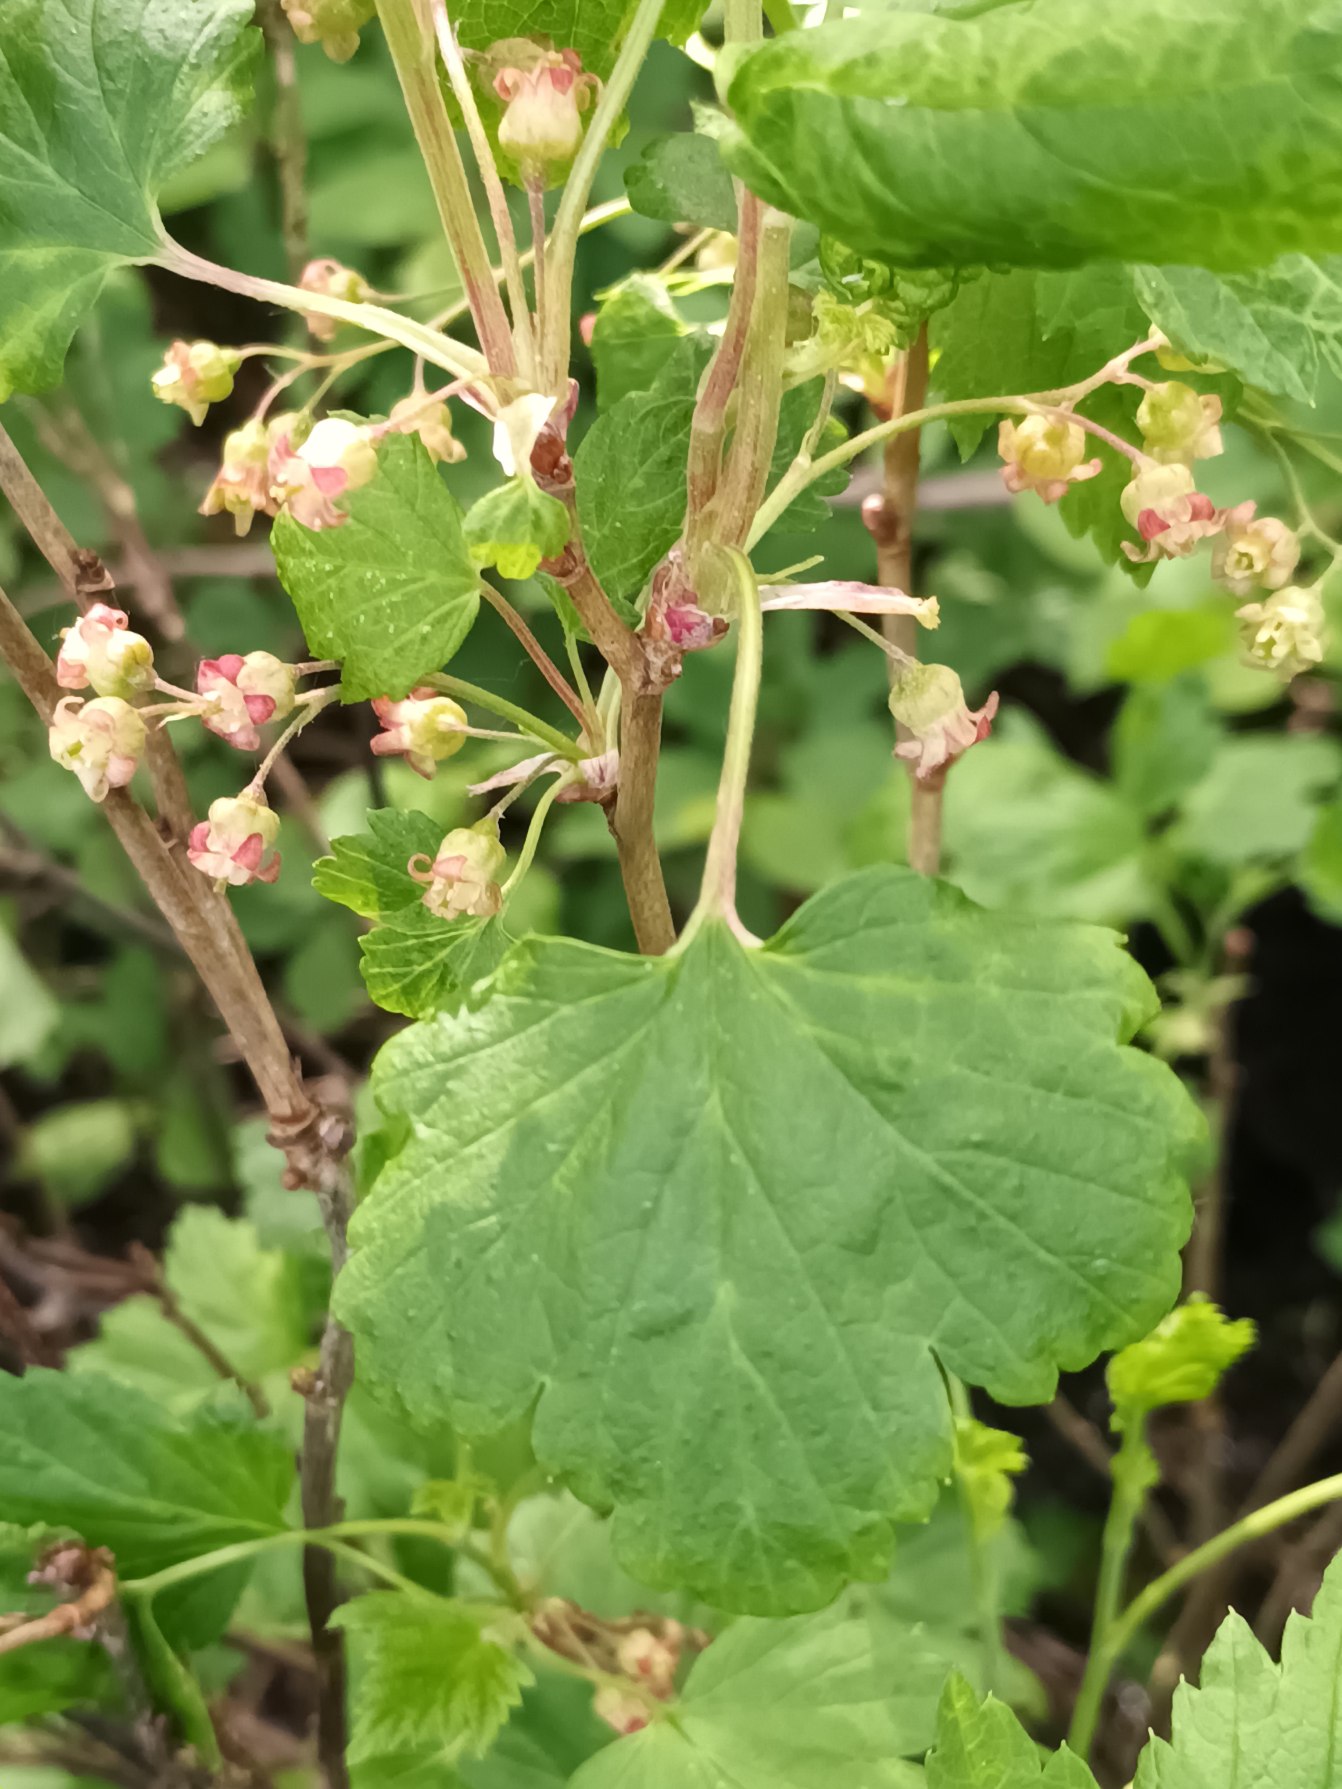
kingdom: Plantae
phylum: Tracheophyta
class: Magnoliopsida
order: Saxifragales
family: Grossulariaceae
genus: Ribes
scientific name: Ribes nigrum
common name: Solbær
